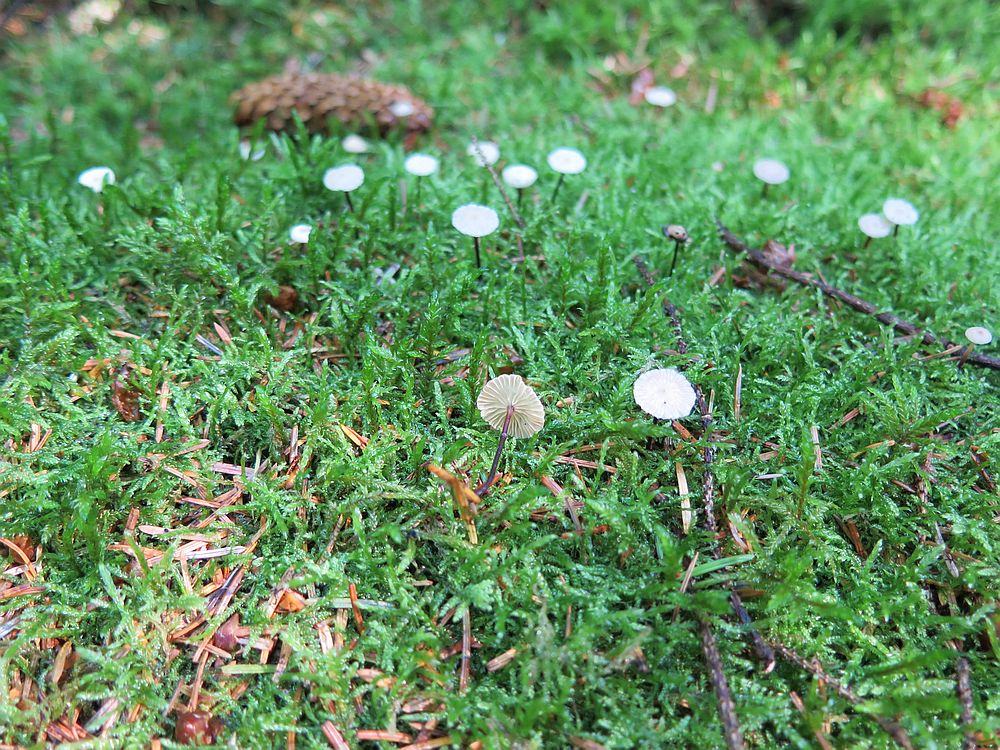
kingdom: Fungi
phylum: Basidiomycota
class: Agaricomycetes
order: Agaricales
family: Omphalotaceae
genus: Paragymnopus
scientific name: Paragymnopus perforans
